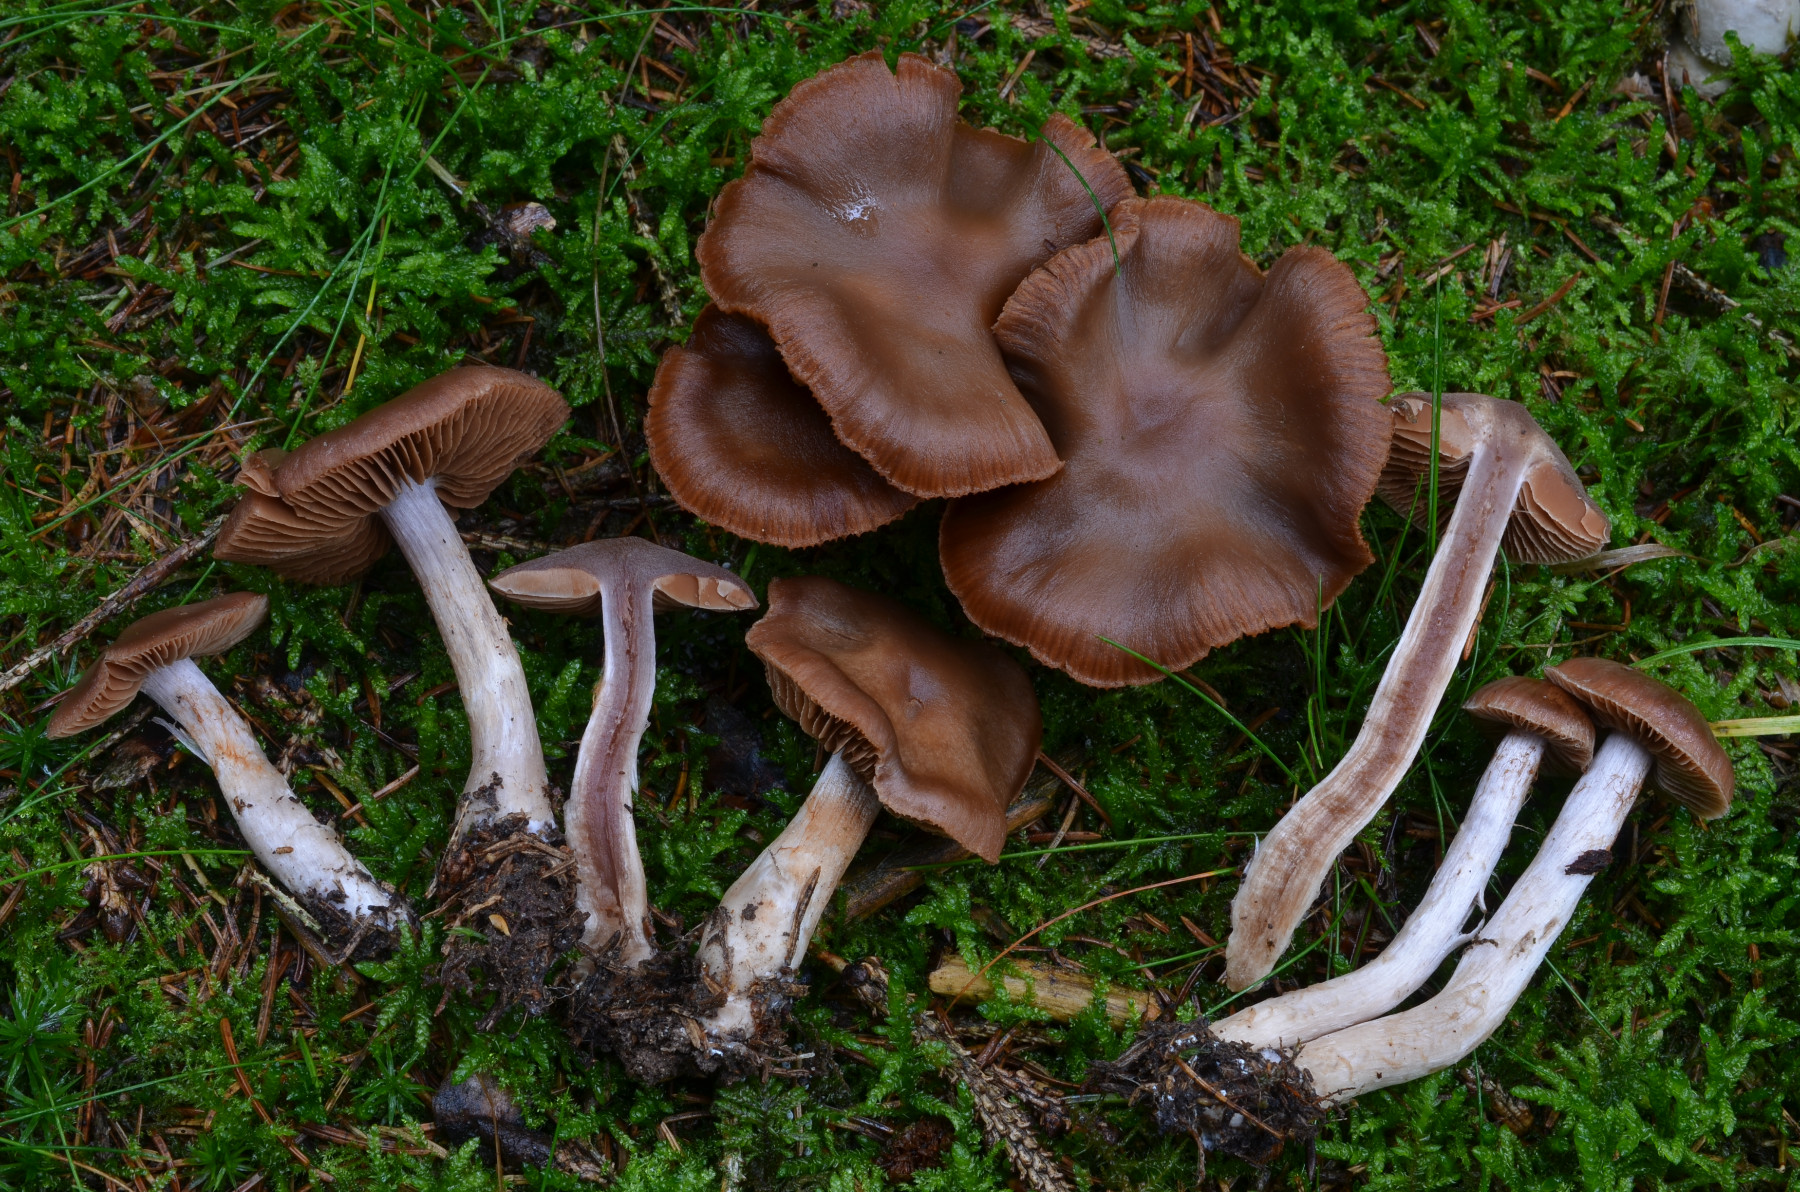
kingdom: Fungi
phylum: Basidiomycota
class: Agaricomycetes
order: Agaricales
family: Cortinariaceae
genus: Cortinarius
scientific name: Cortinarius hircinosmus
